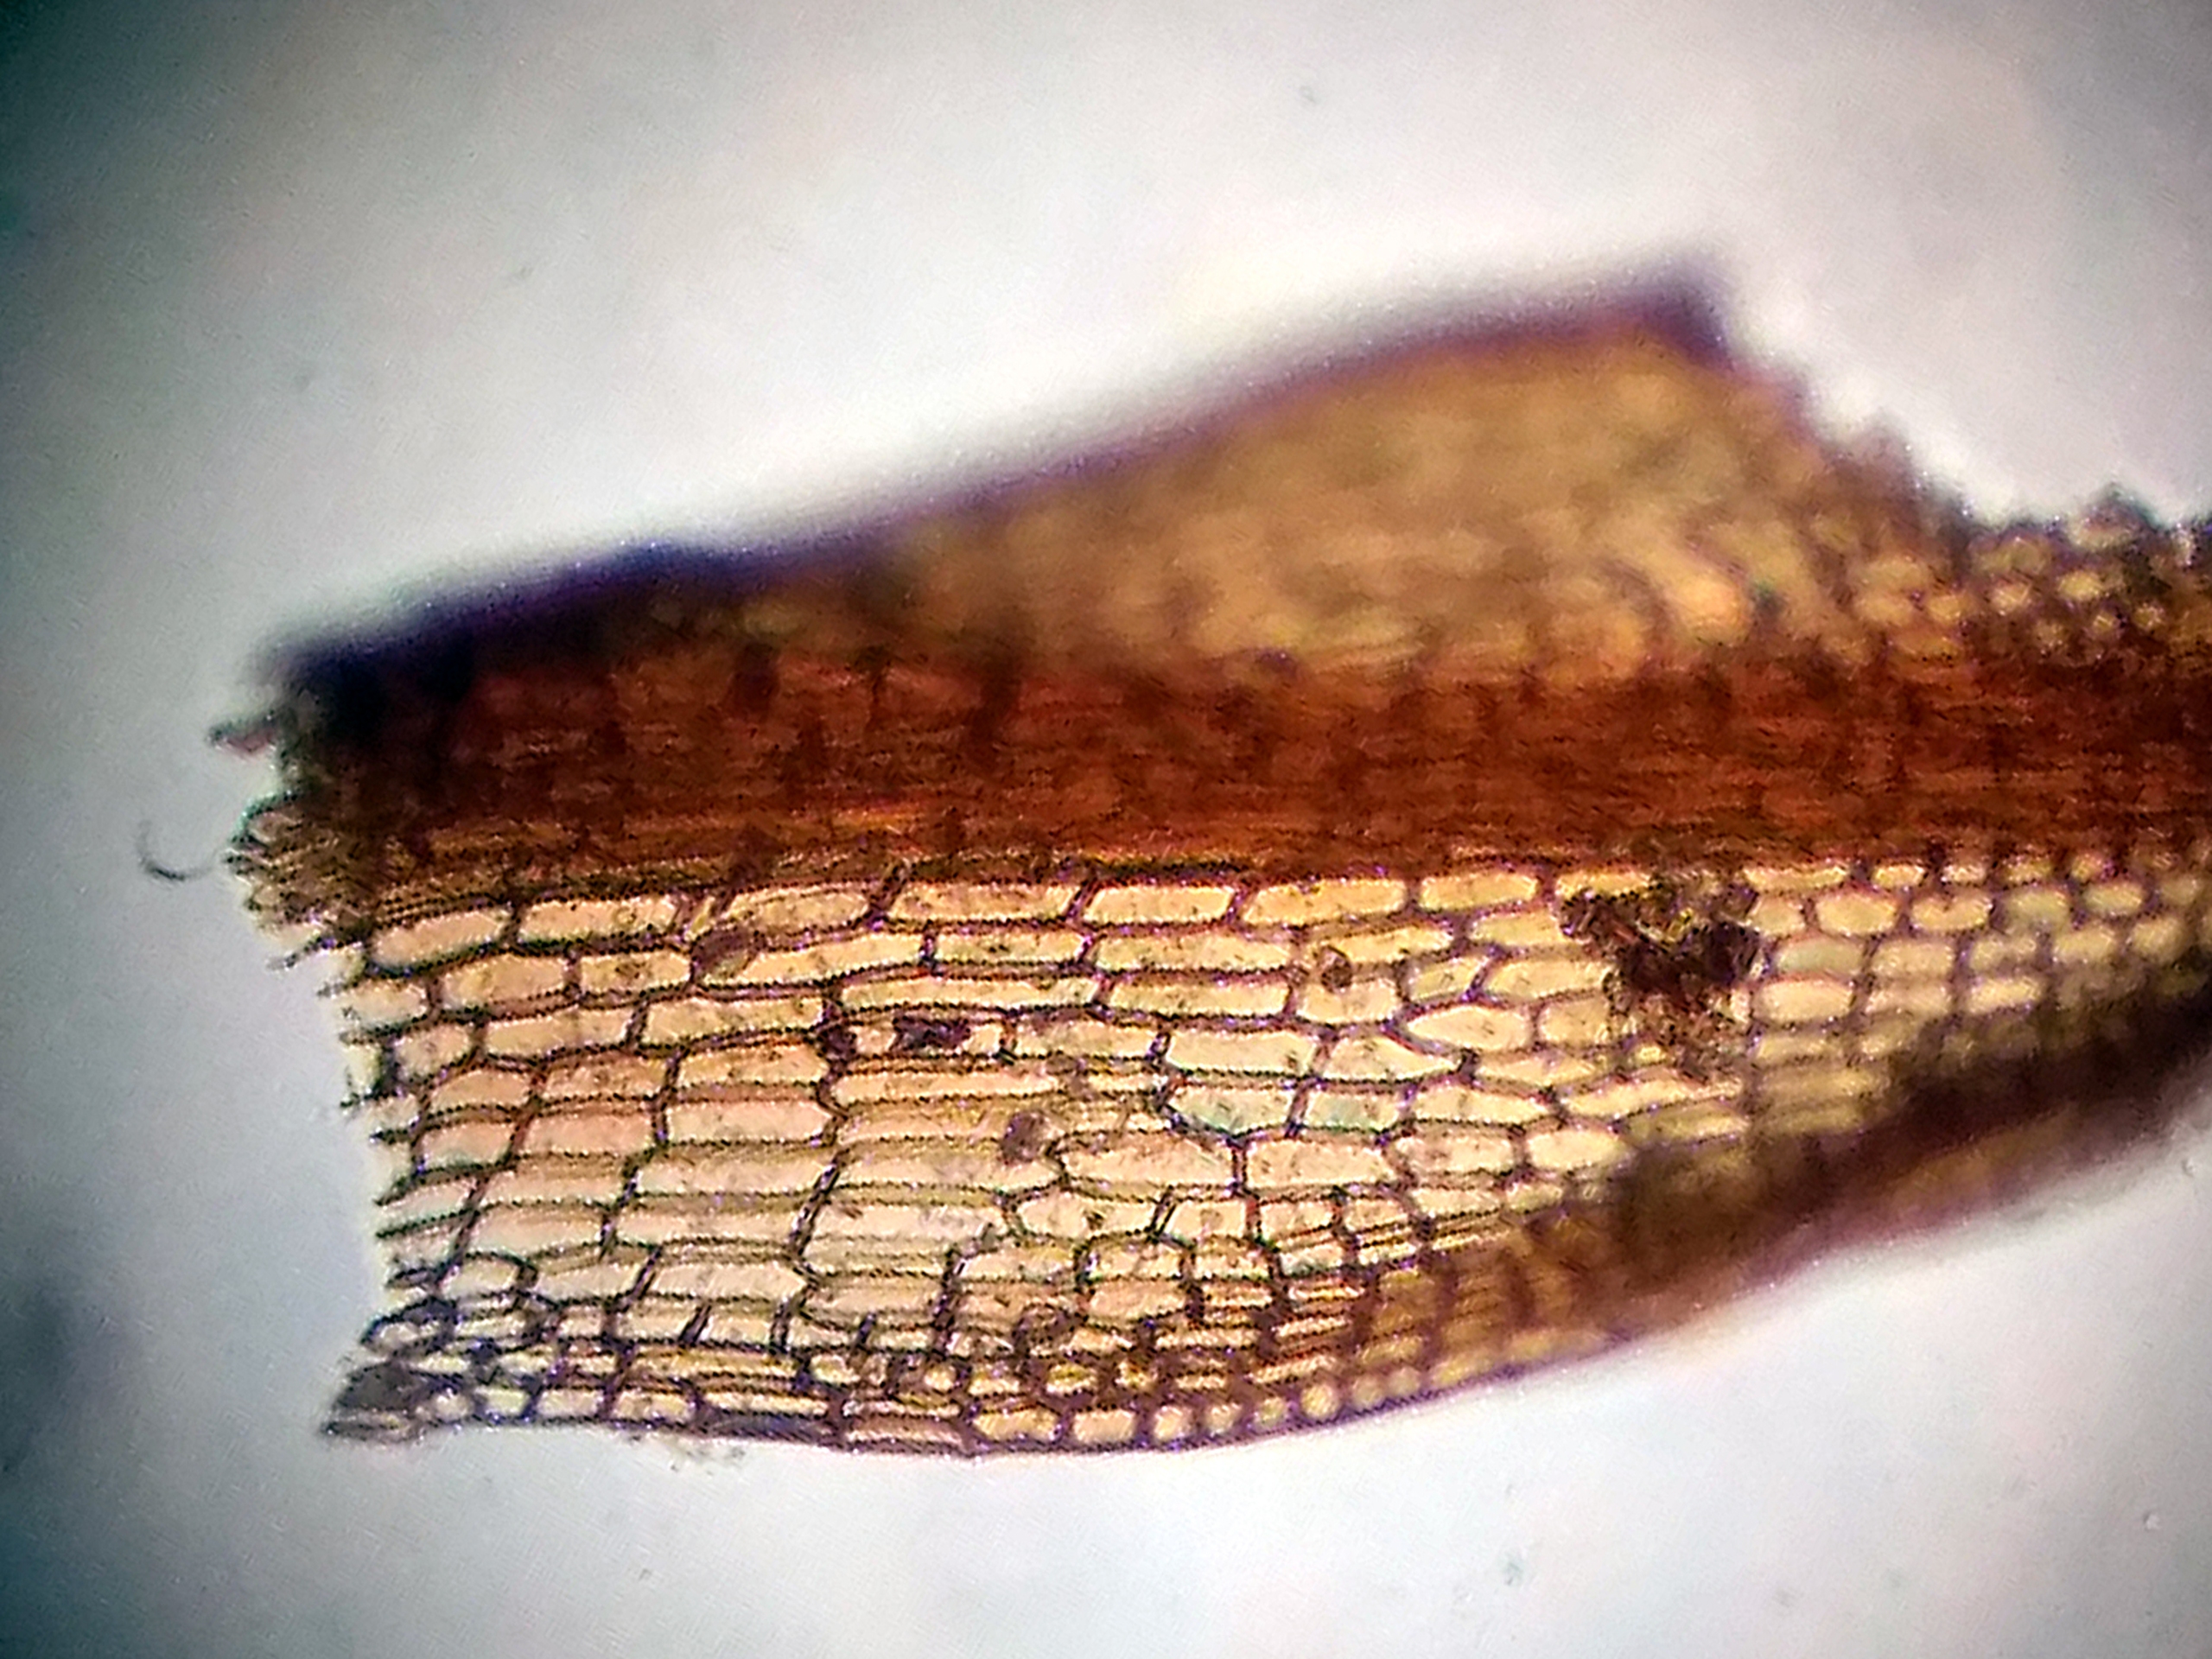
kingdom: Plantae
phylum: Bryophyta
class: Bryopsida
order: Pottiales
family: Pottiaceae
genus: Bryoerythrophyllum
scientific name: Bryoerythrophyllum recurvirostrum
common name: Rød gammelblad
